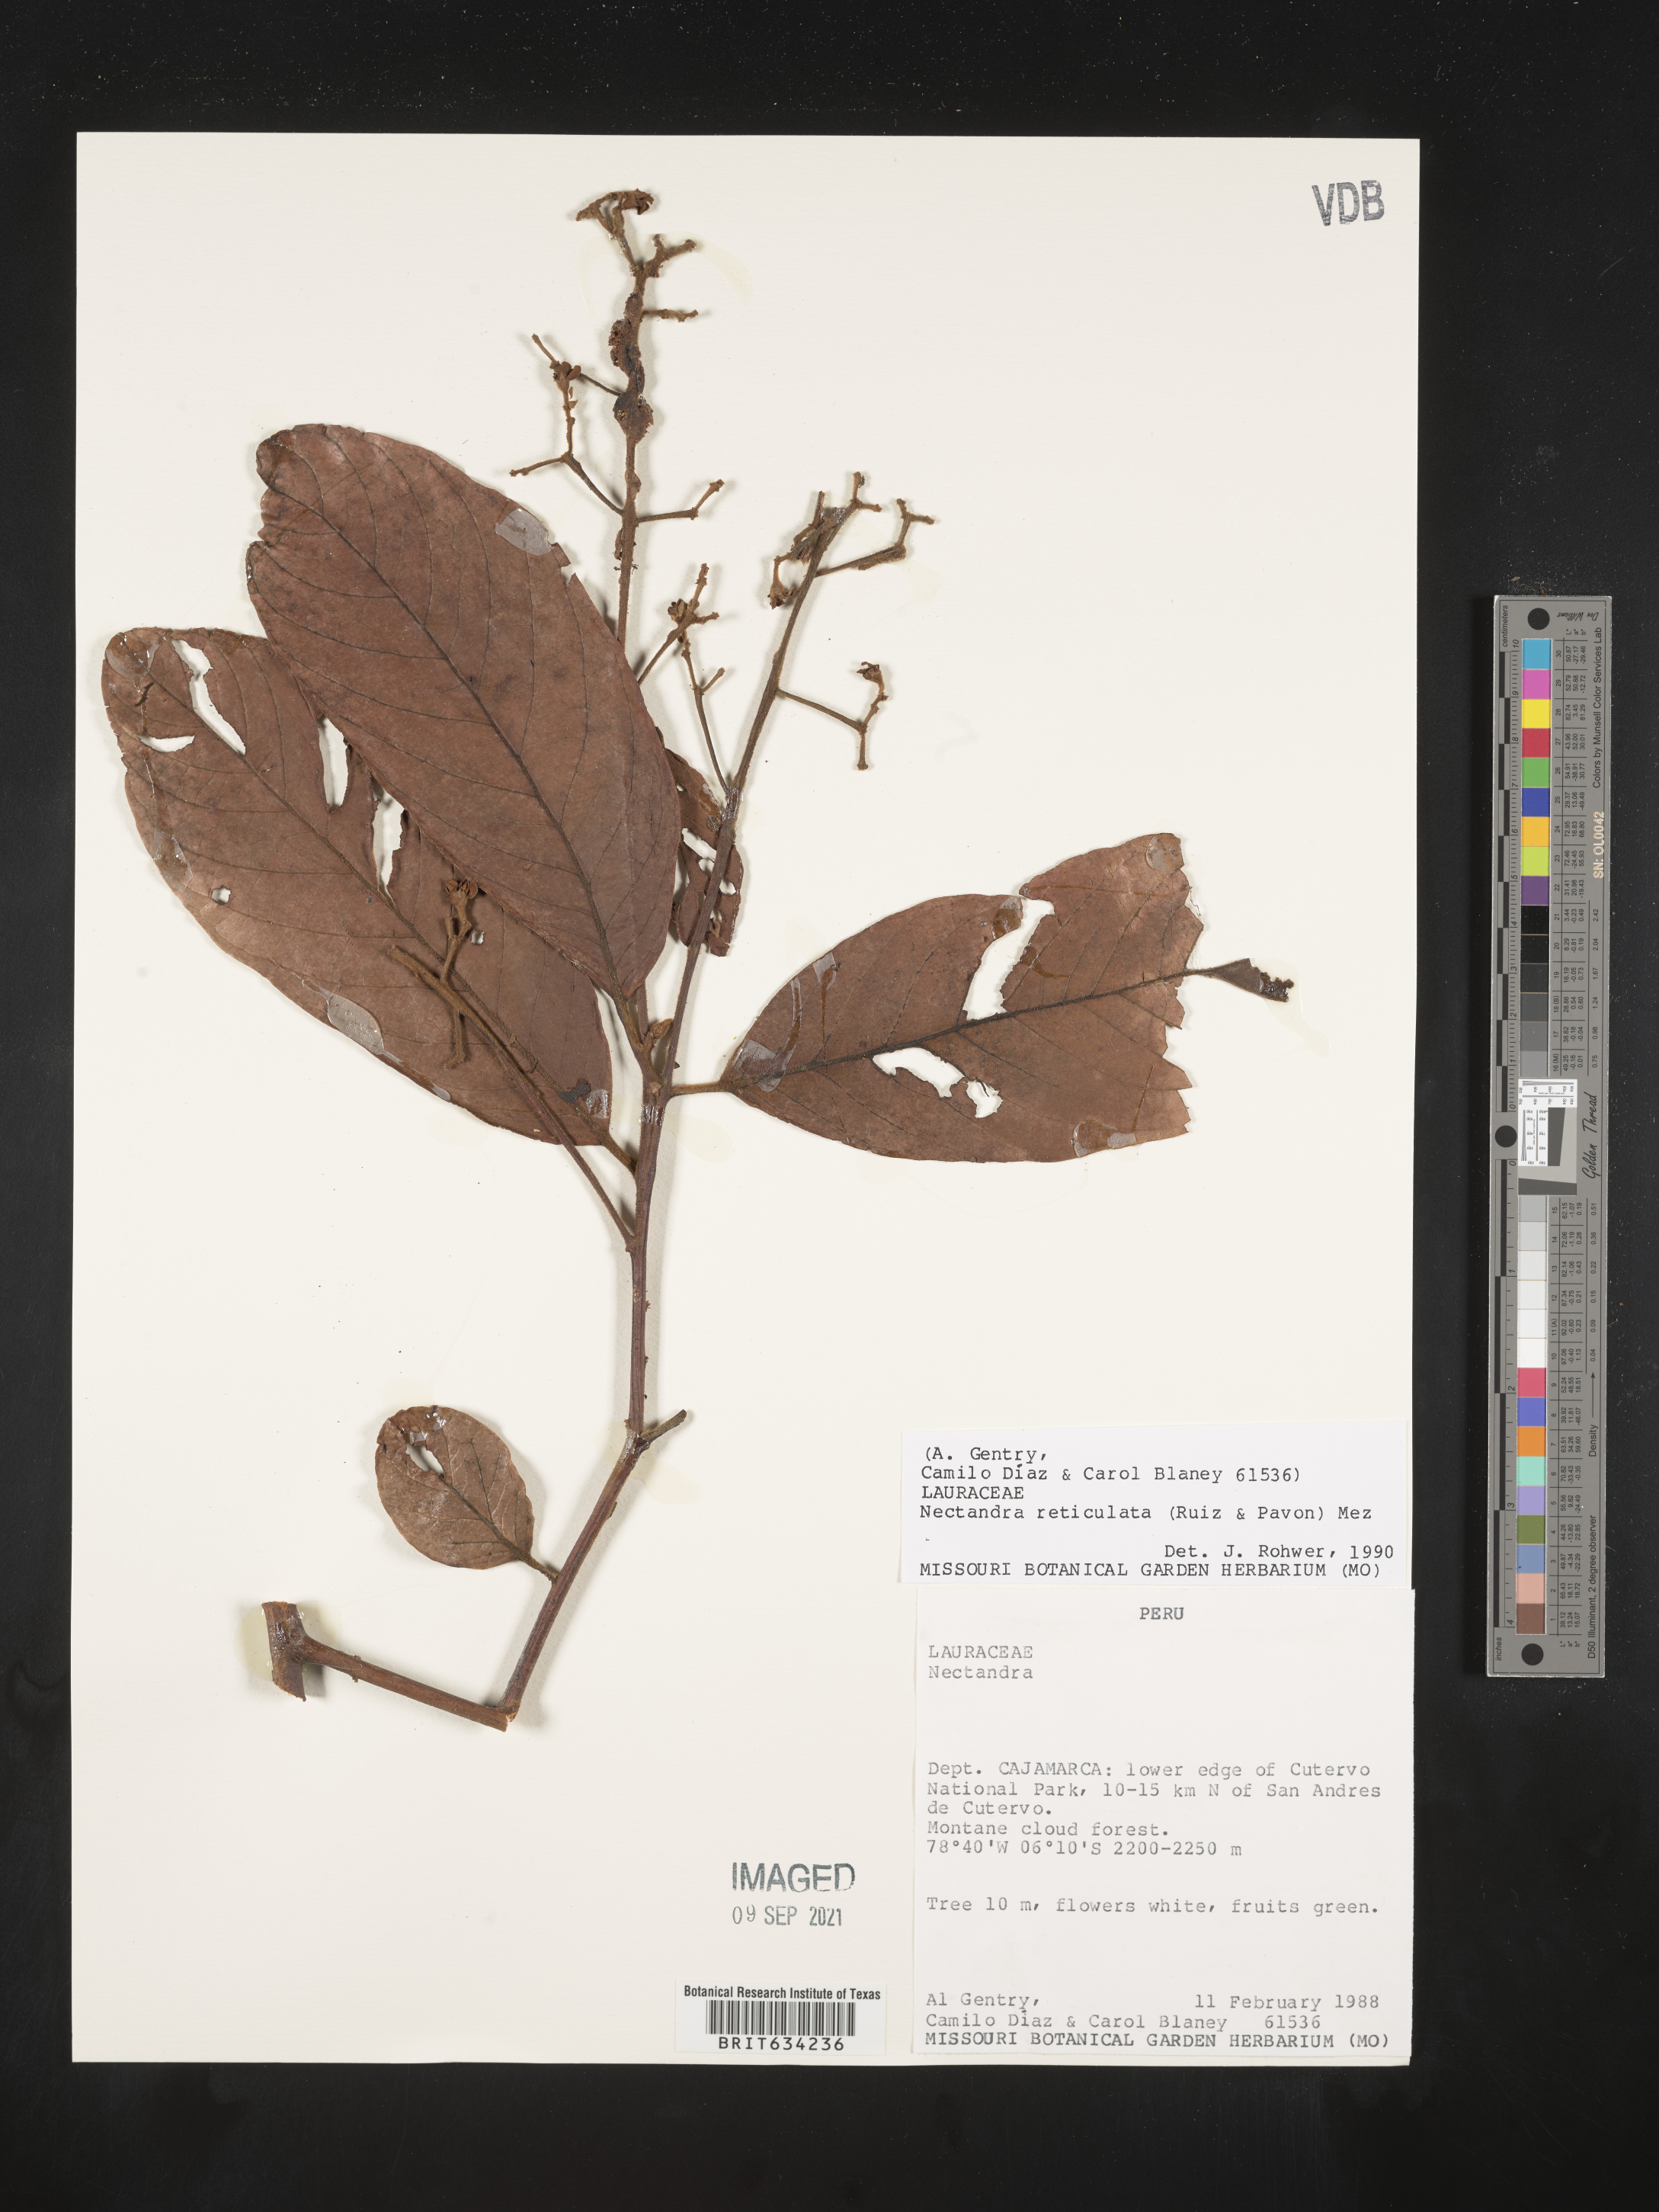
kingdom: Plantae
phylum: Tracheophyta
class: Magnoliopsida
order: Laurales
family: Lauraceae
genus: Nectandra
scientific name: Nectandra
